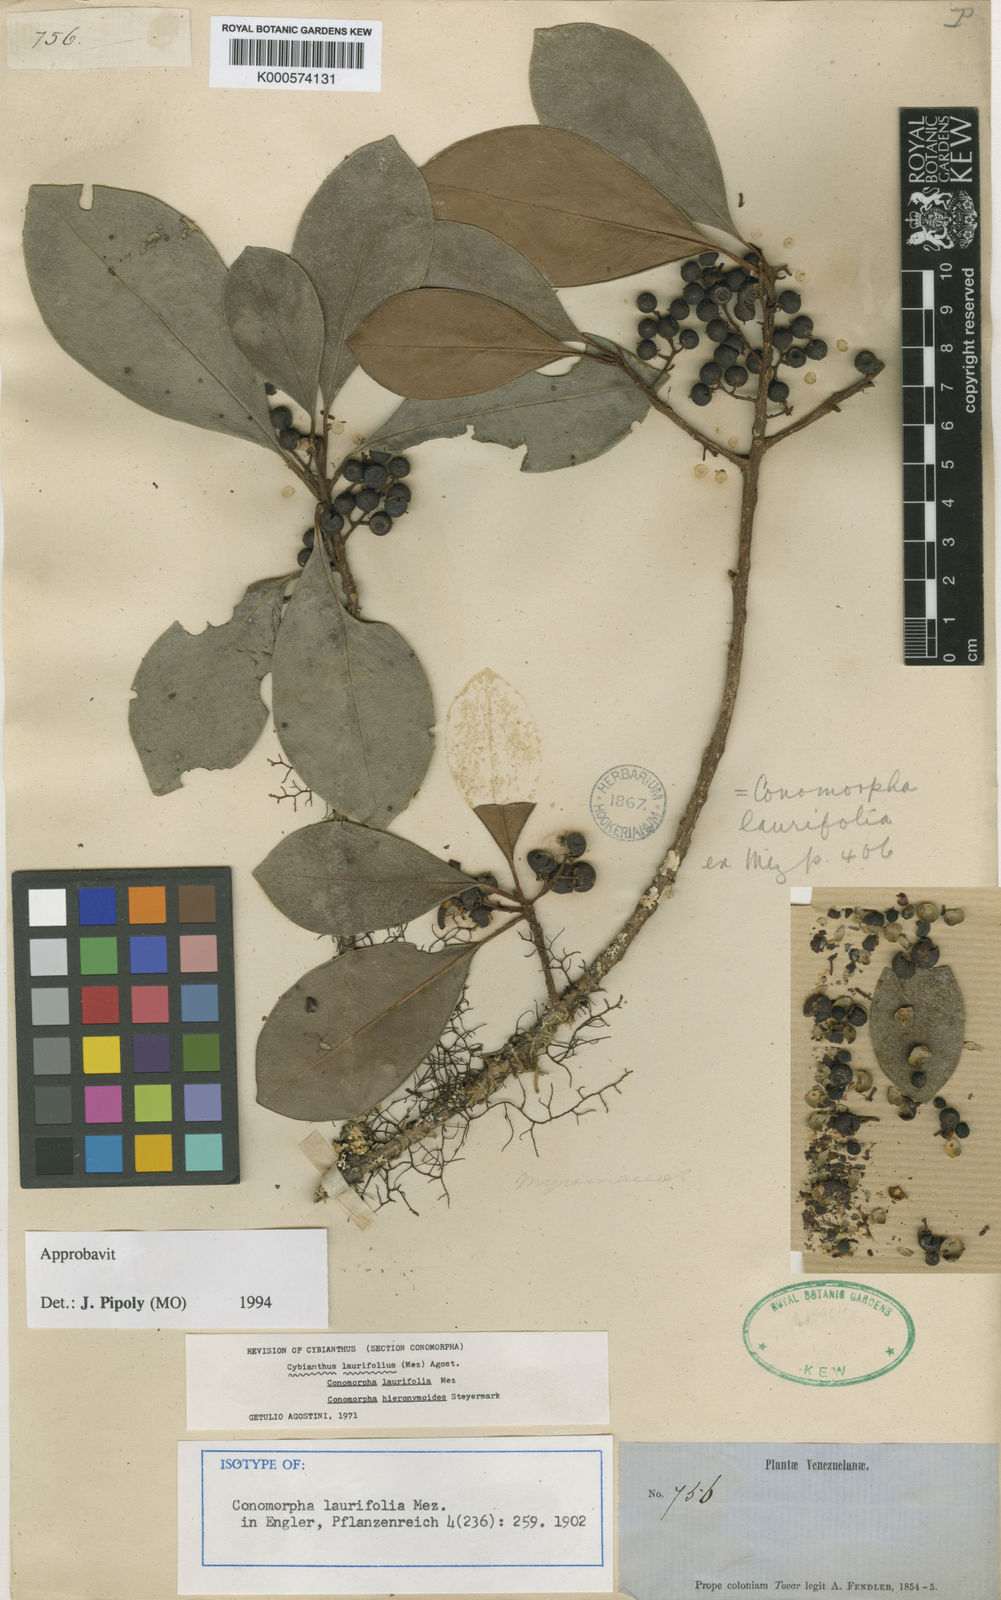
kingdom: Plantae
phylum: Tracheophyta
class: Magnoliopsida
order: Ericales
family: Primulaceae
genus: Cybianthus
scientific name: Cybianthus laurifolius
